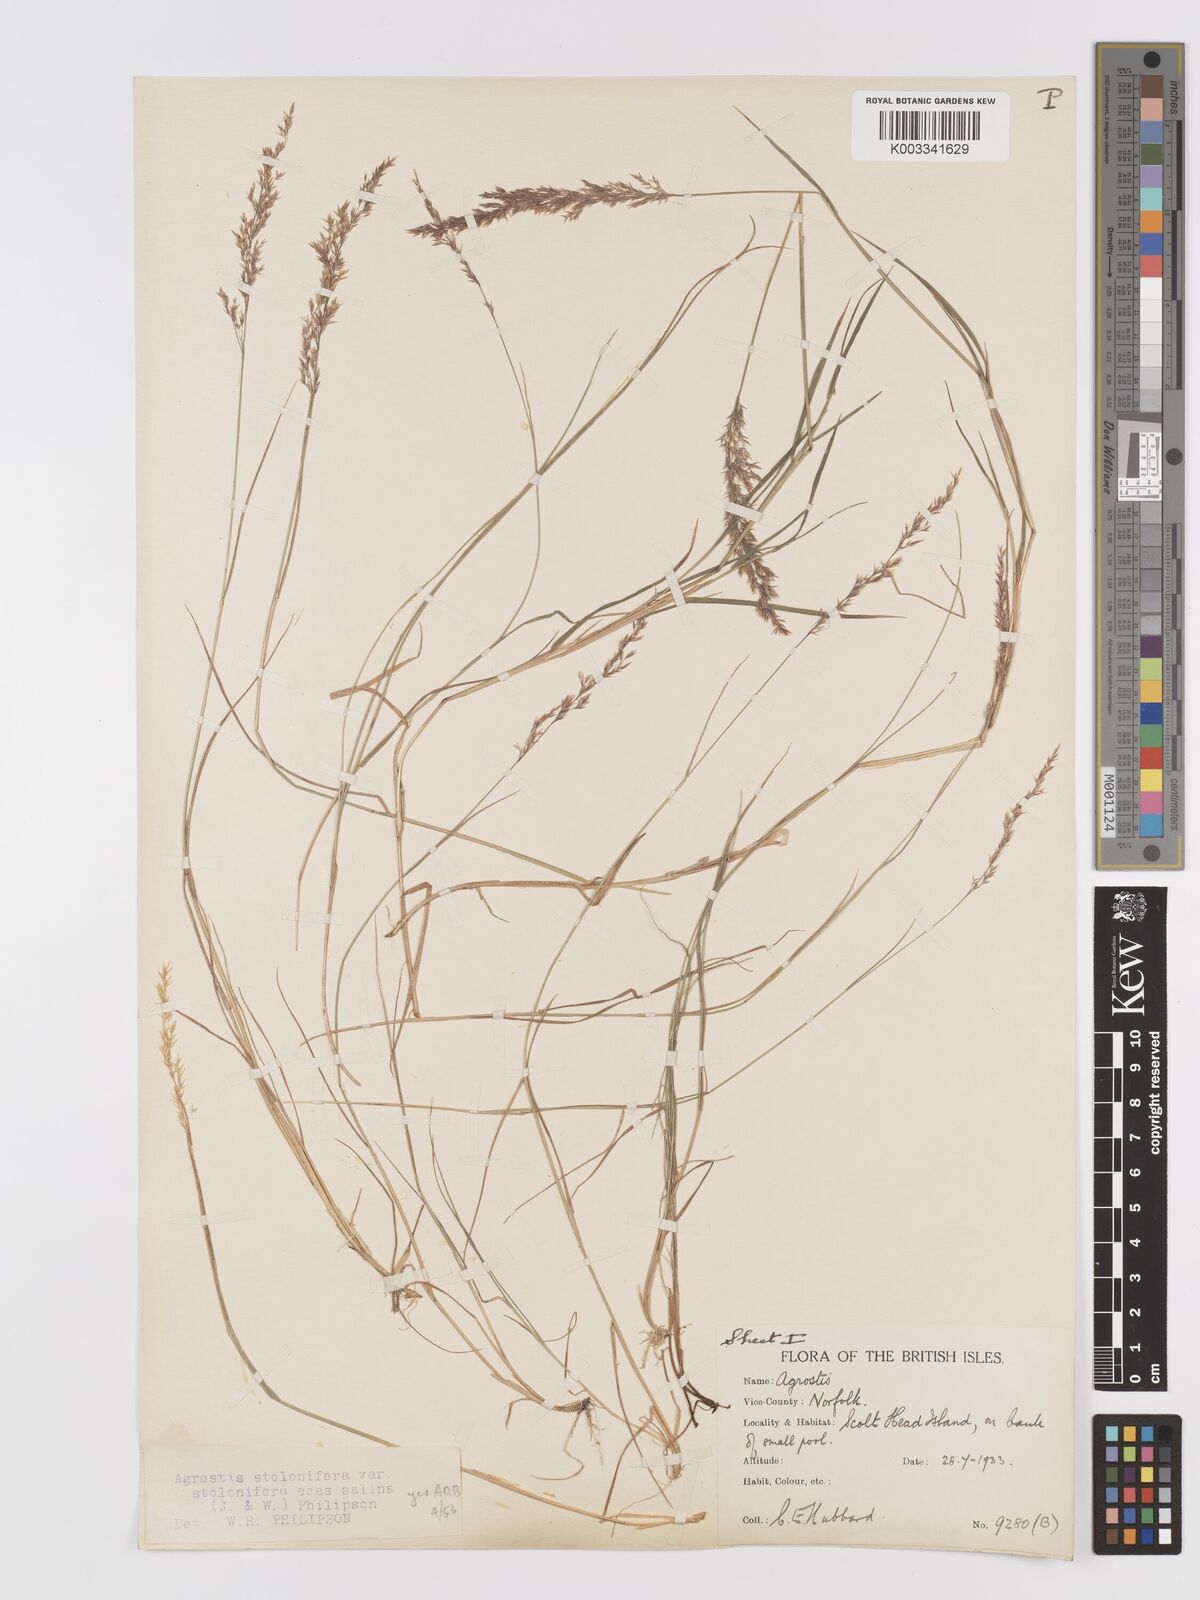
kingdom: Plantae
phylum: Tracheophyta
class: Liliopsida
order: Poales
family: Poaceae
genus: Agrostis
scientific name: Agrostis stolonifera
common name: Creeping bentgrass
